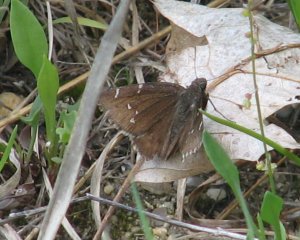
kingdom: Animalia
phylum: Arthropoda
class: Insecta
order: Lepidoptera
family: Hesperiidae
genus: Autochton
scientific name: Autochton
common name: Northern Cloudywing
